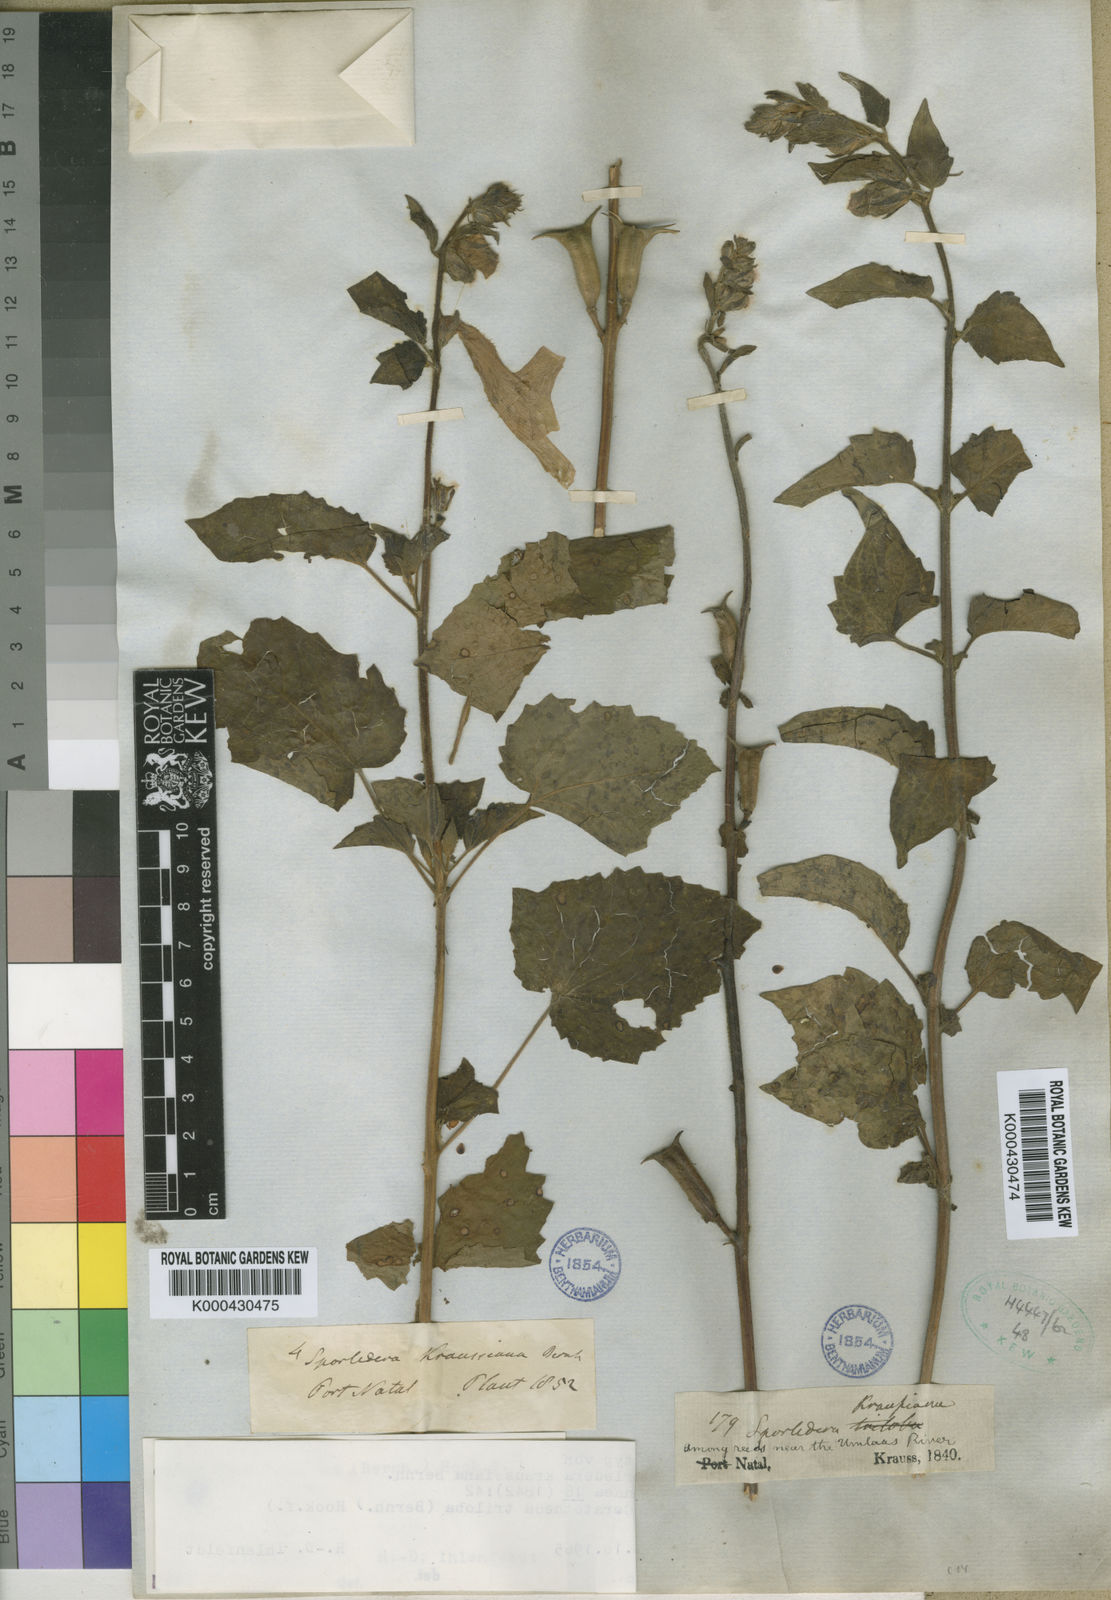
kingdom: Plantae
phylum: Tracheophyta
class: Magnoliopsida
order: Lamiales
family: Pedaliaceae
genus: Sesamum
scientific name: Sesamum trilobum
